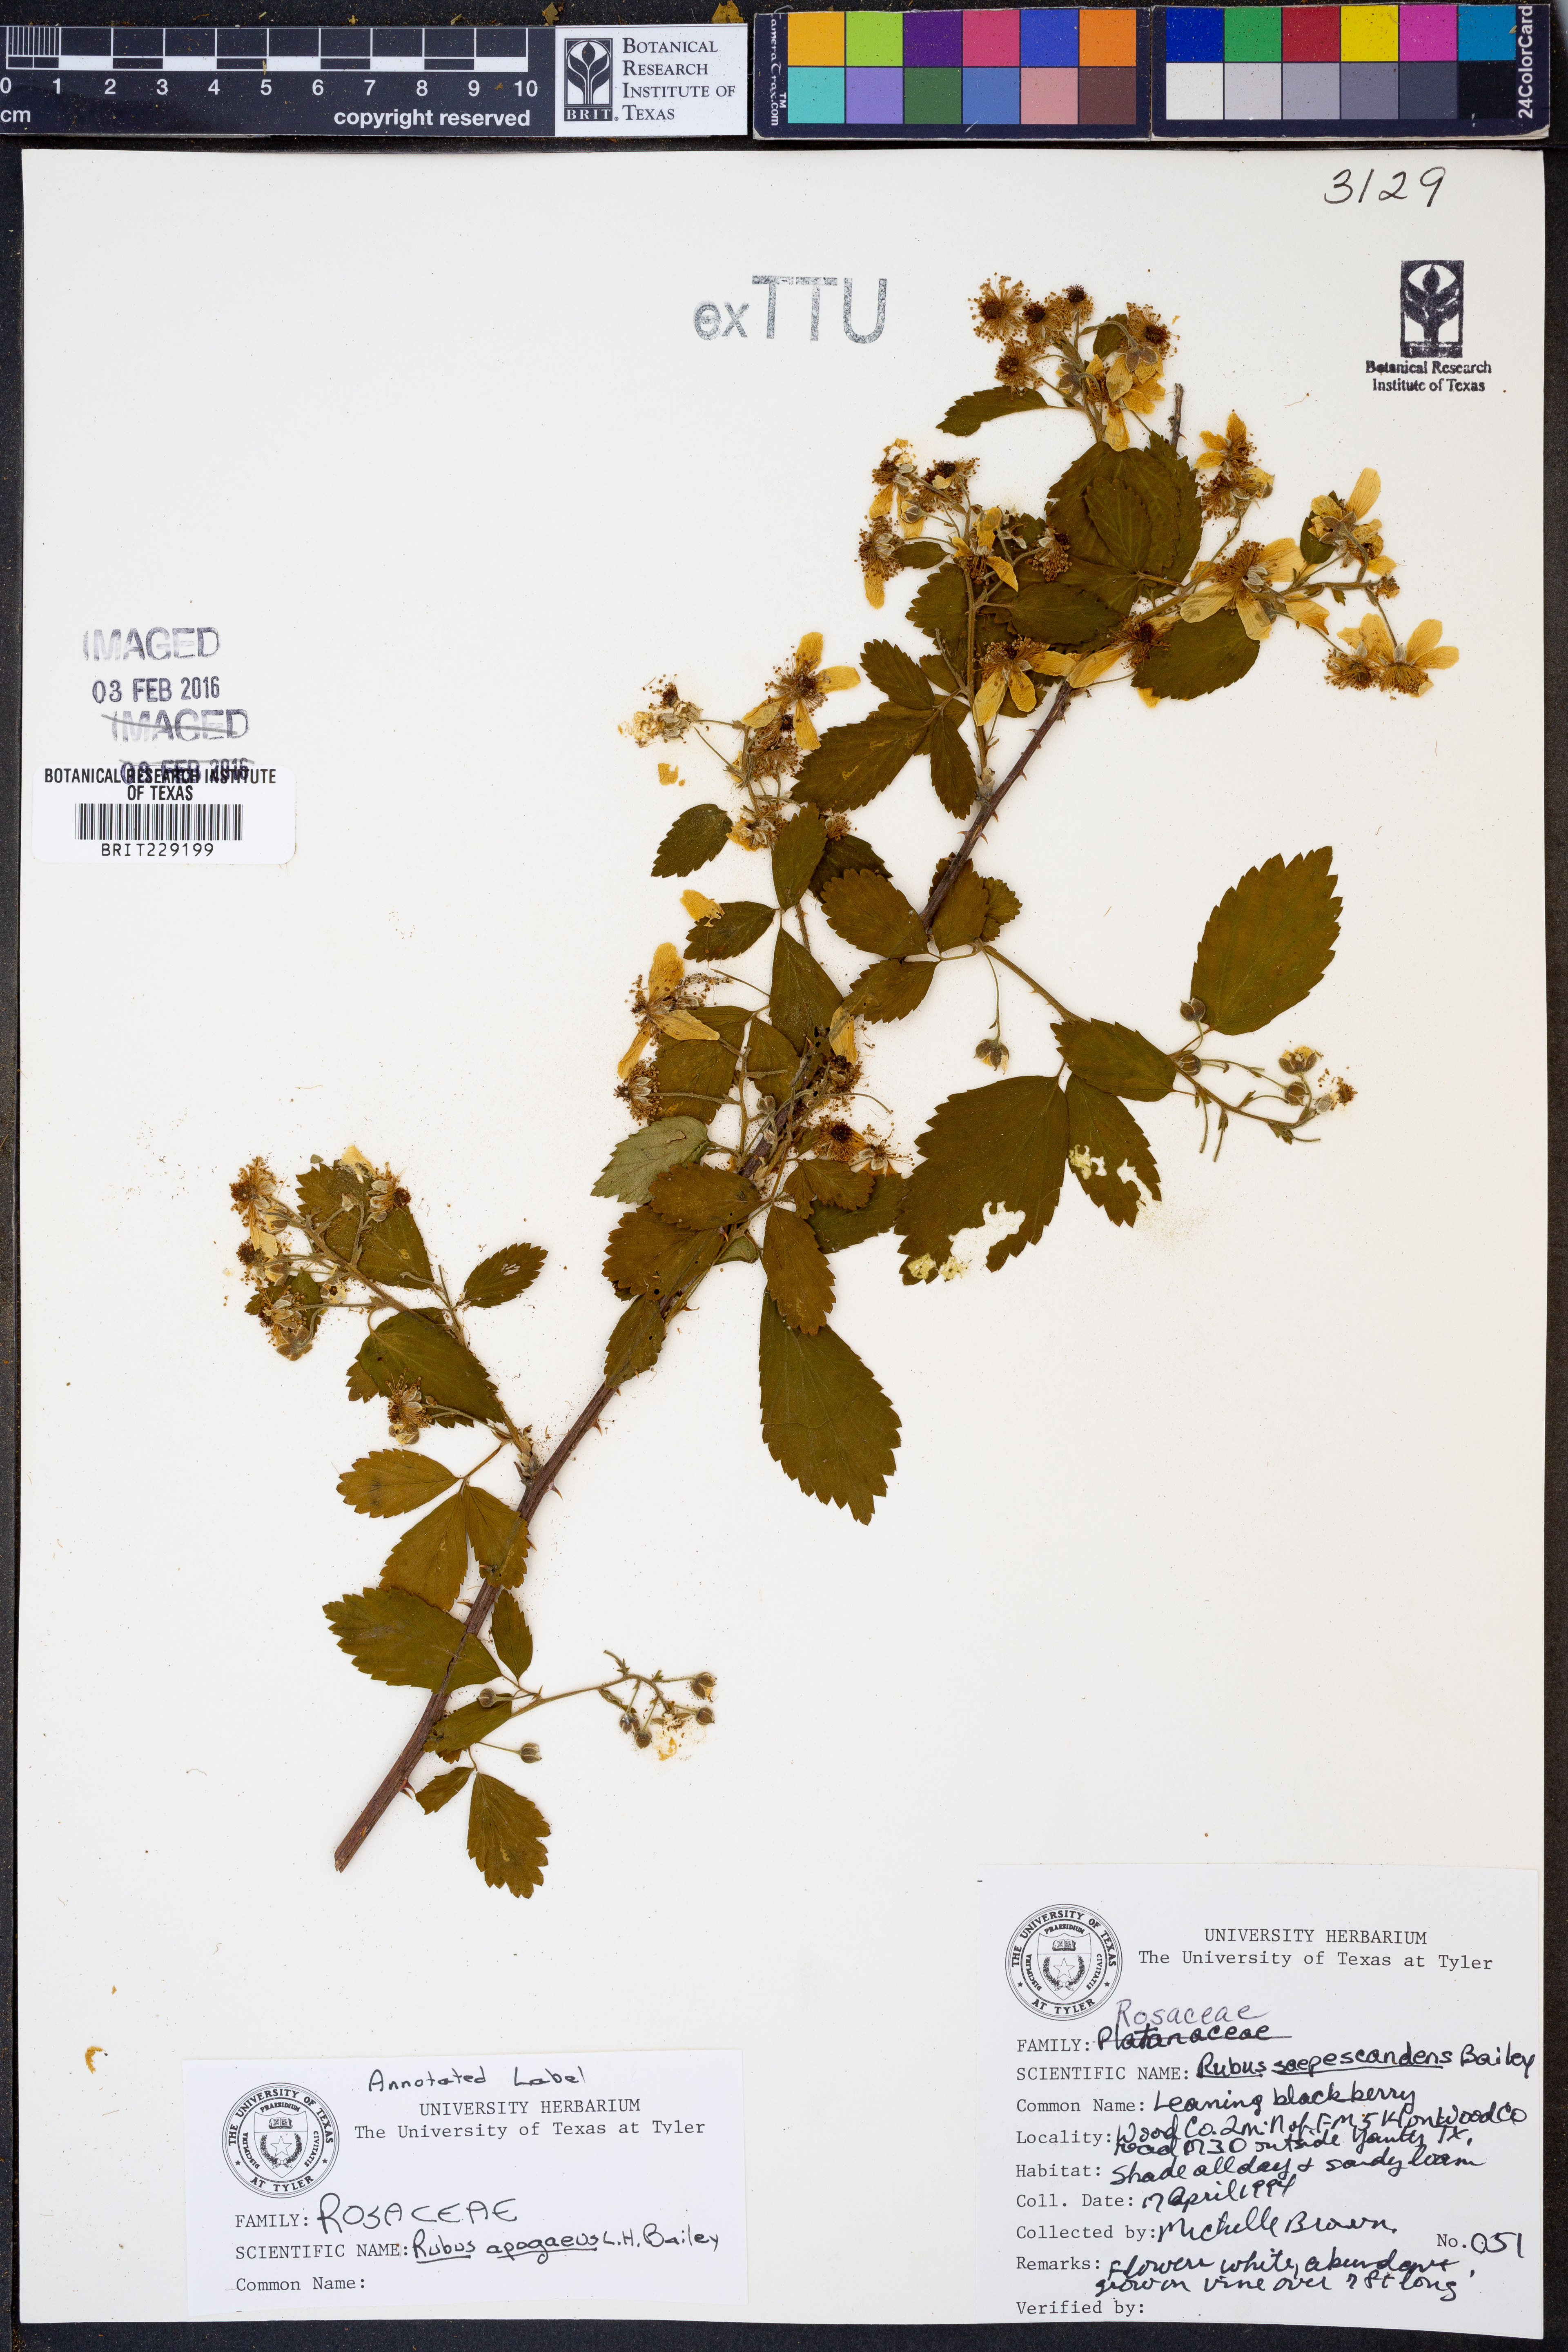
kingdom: Plantae
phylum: Tracheophyta
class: Magnoliopsida
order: Rosales
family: Rosaceae
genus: Rubus
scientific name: Rubus apogaeus
